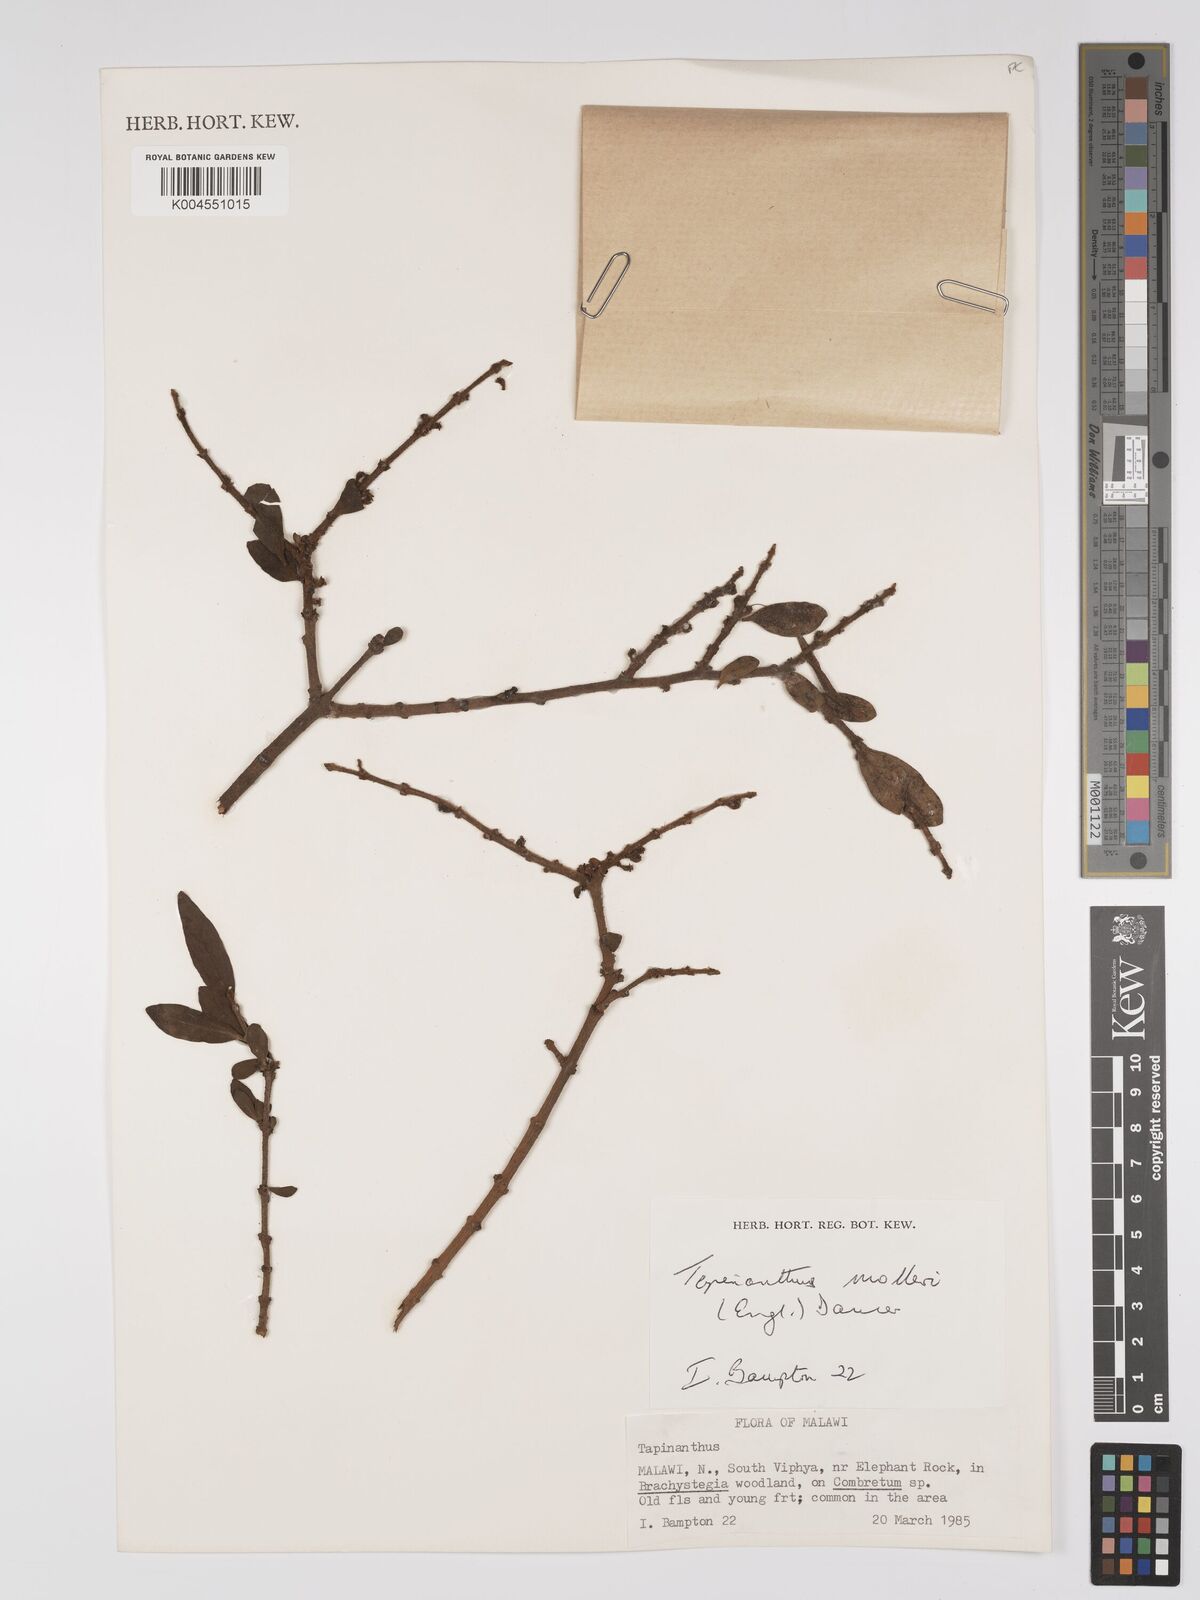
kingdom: Plantae
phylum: Tracheophyta
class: Magnoliopsida
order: Santalales
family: Loranthaceae
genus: Agelanthus
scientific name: Agelanthus molleri
